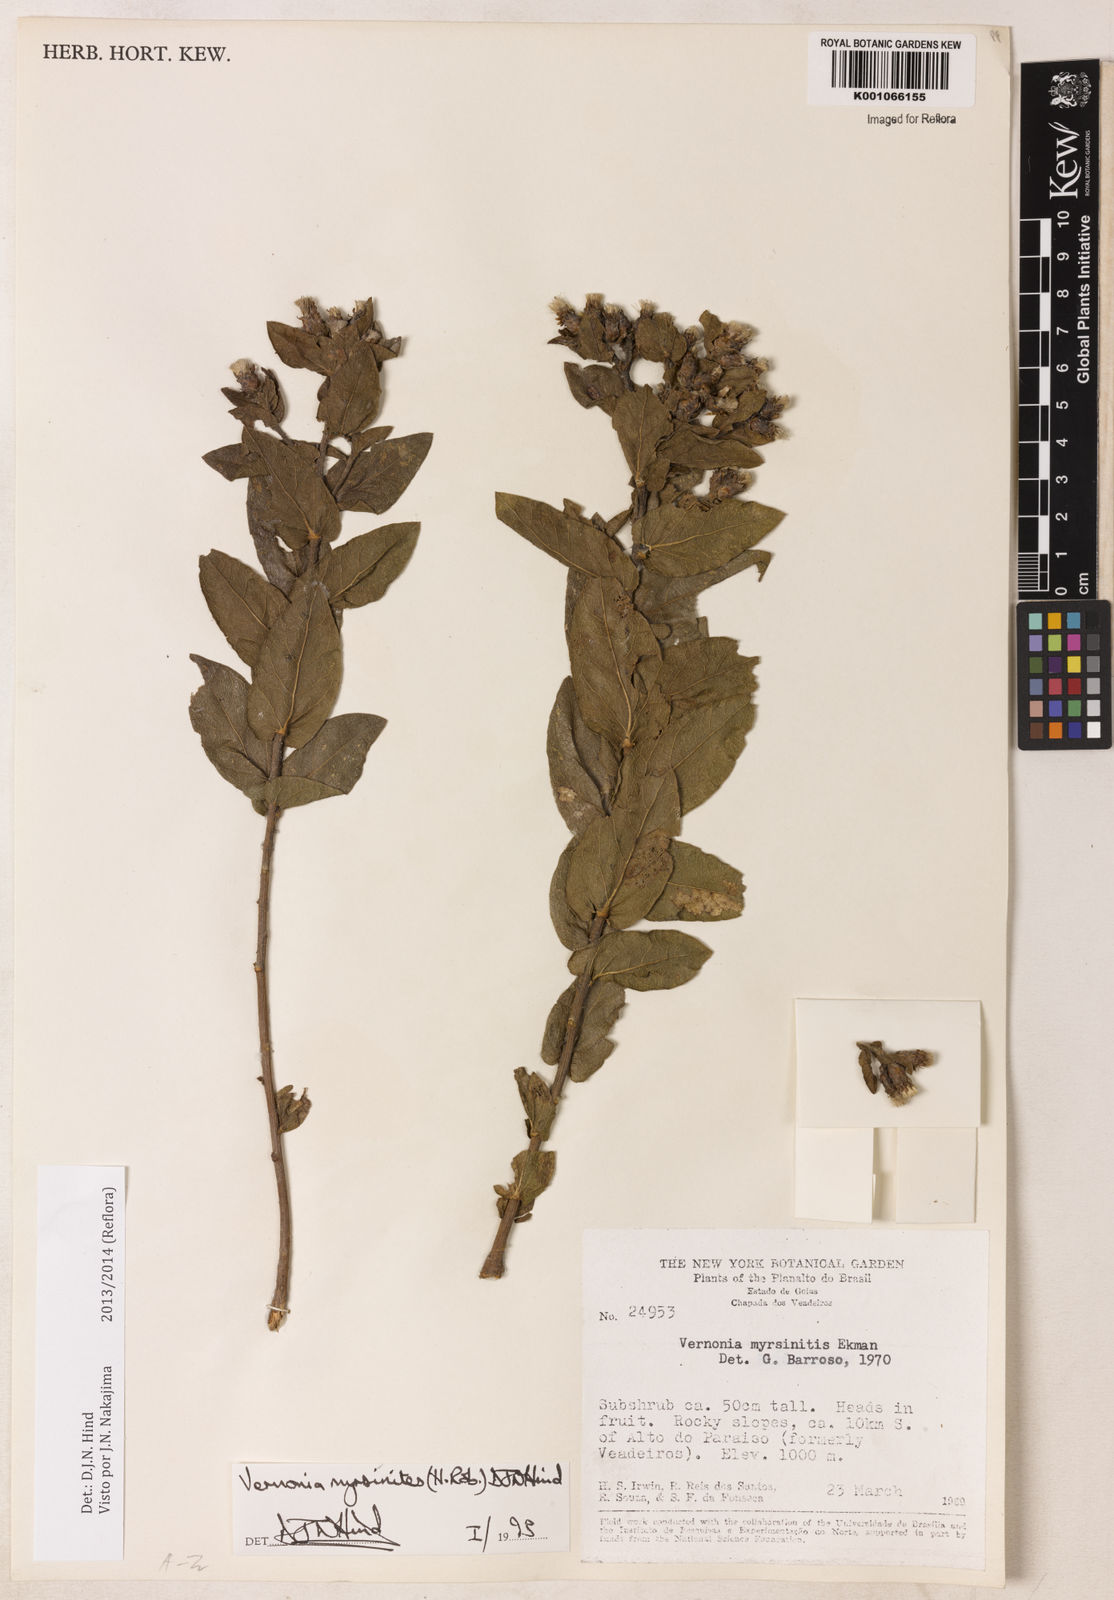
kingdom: Plantae
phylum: Tracheophyta
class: Magnoliopsida
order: Asterales
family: Asteraceae
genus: Lessingianthus
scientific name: Lessingianthus myrsinites
